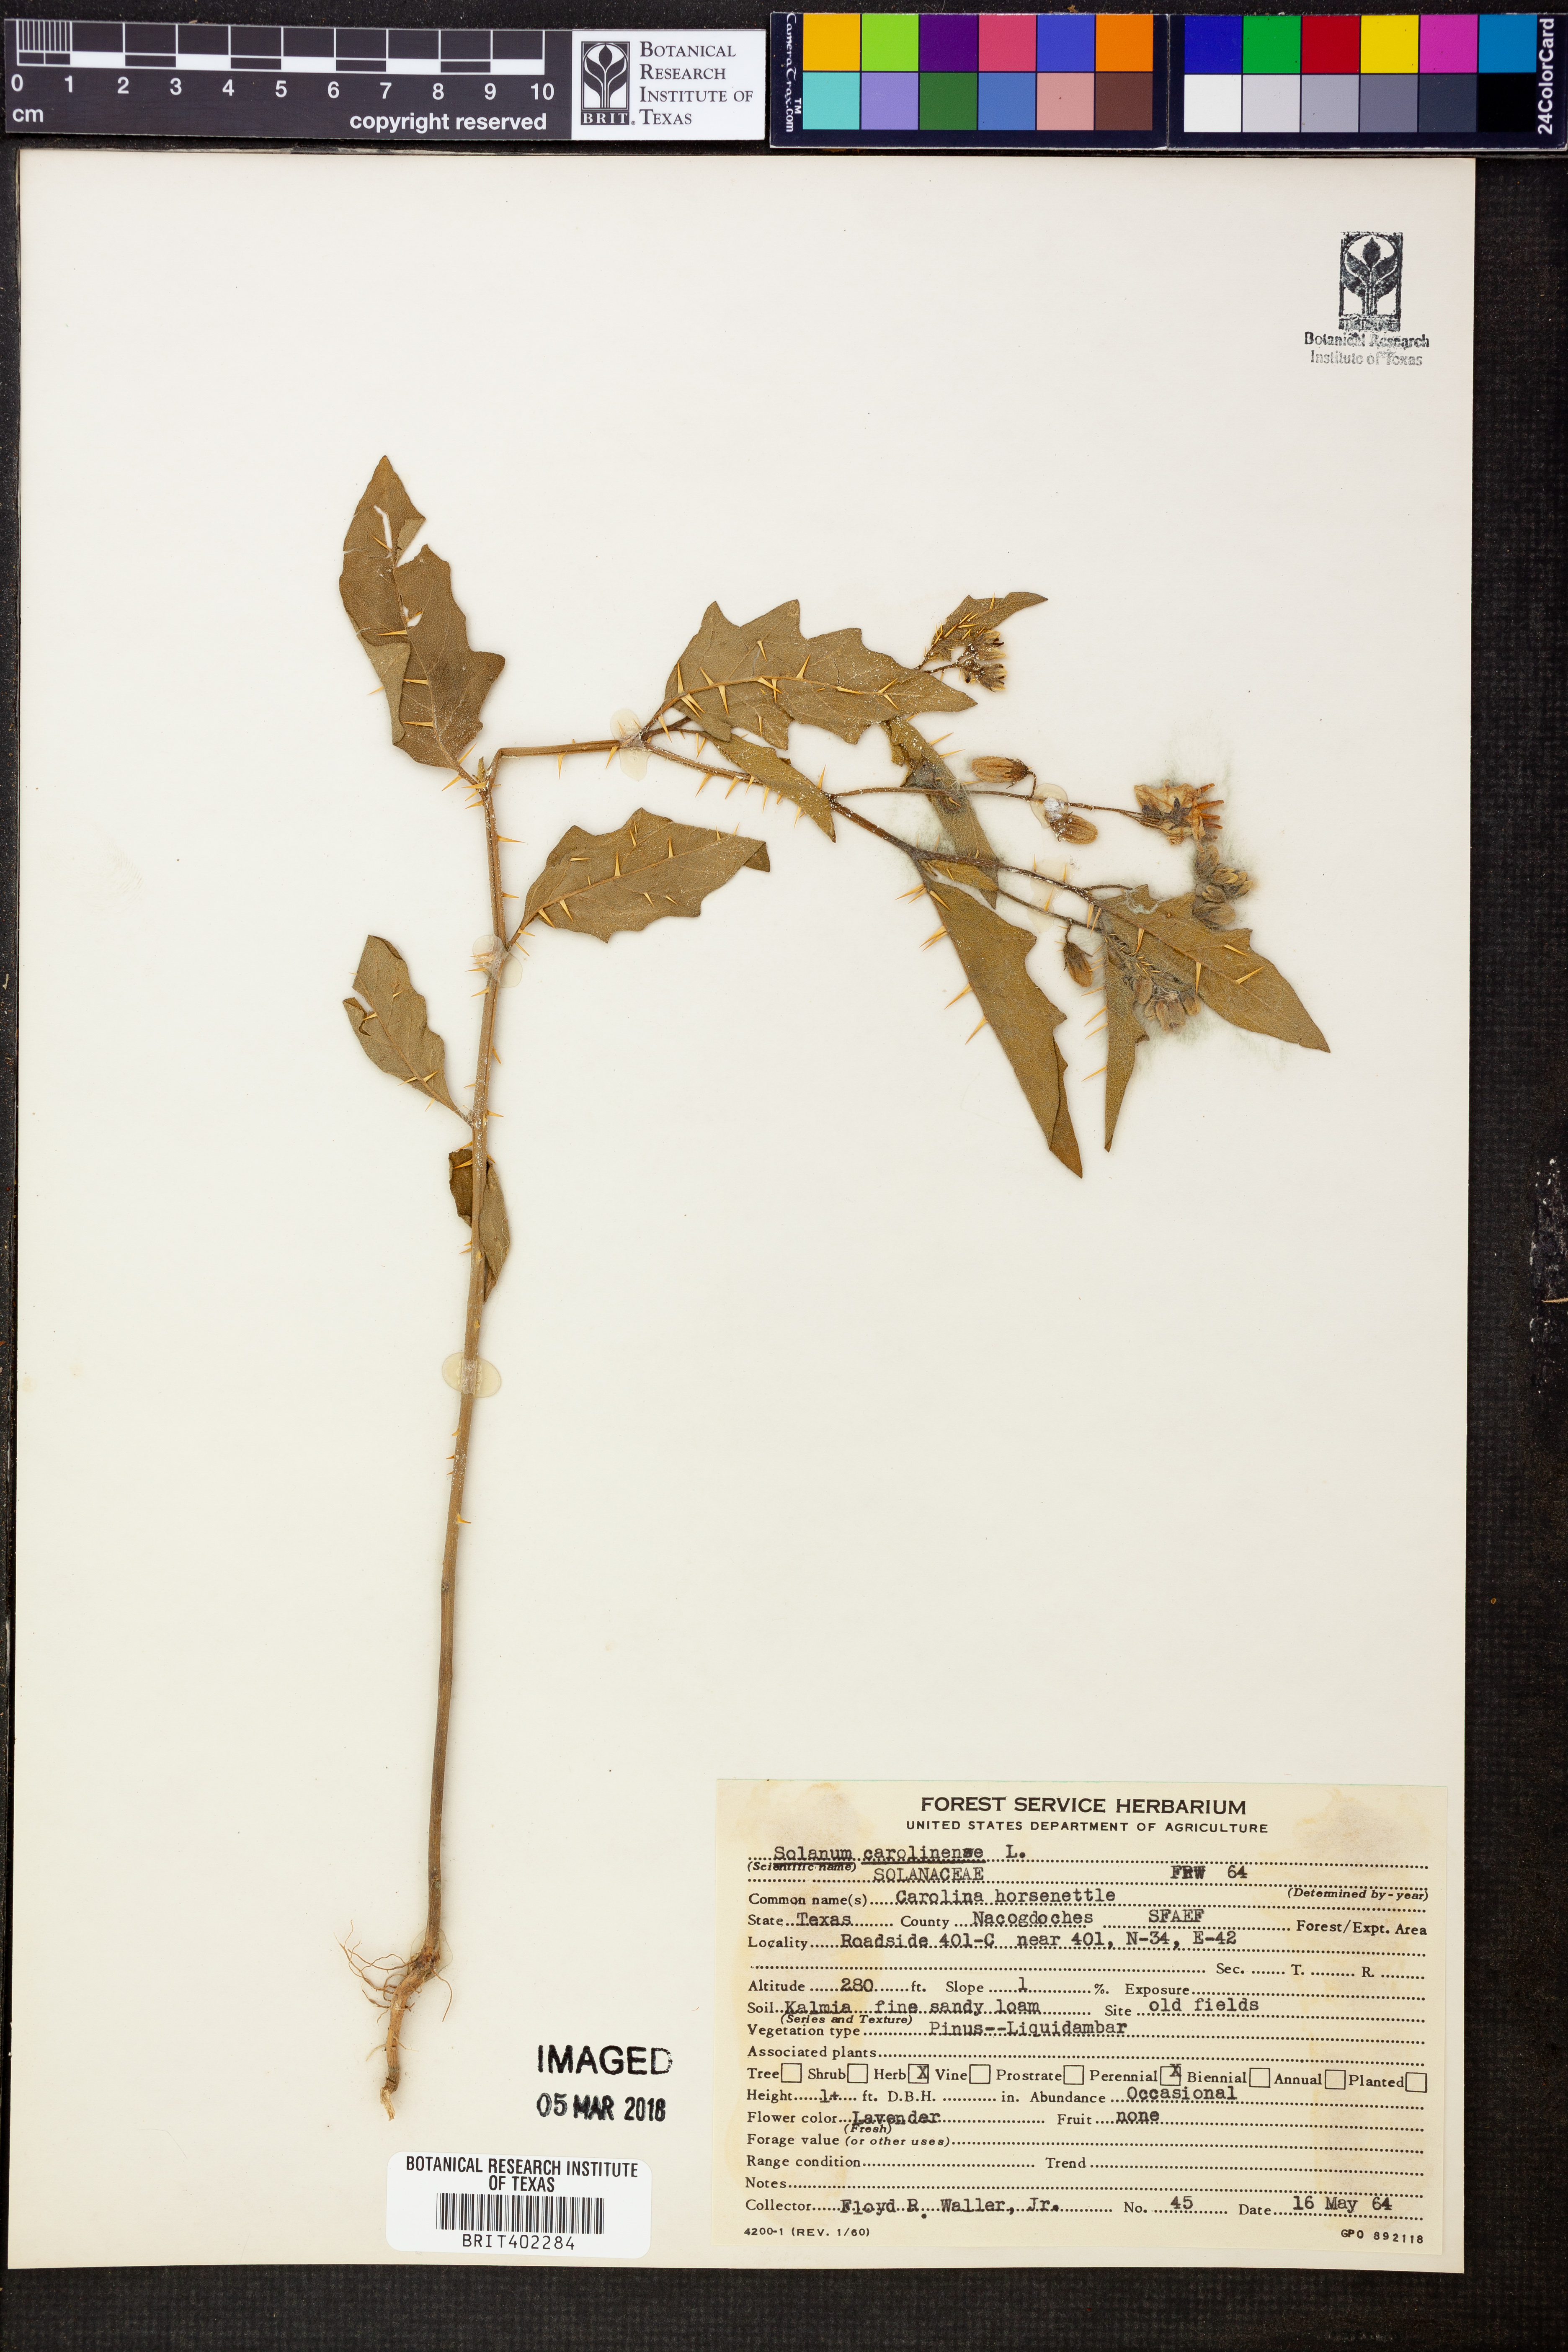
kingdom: Plantae
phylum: Tracheophyta
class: Magnoliopsida
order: Solanales
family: Solanaceae
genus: Solanum
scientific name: Solanum carolinense
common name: Horse-nettle
